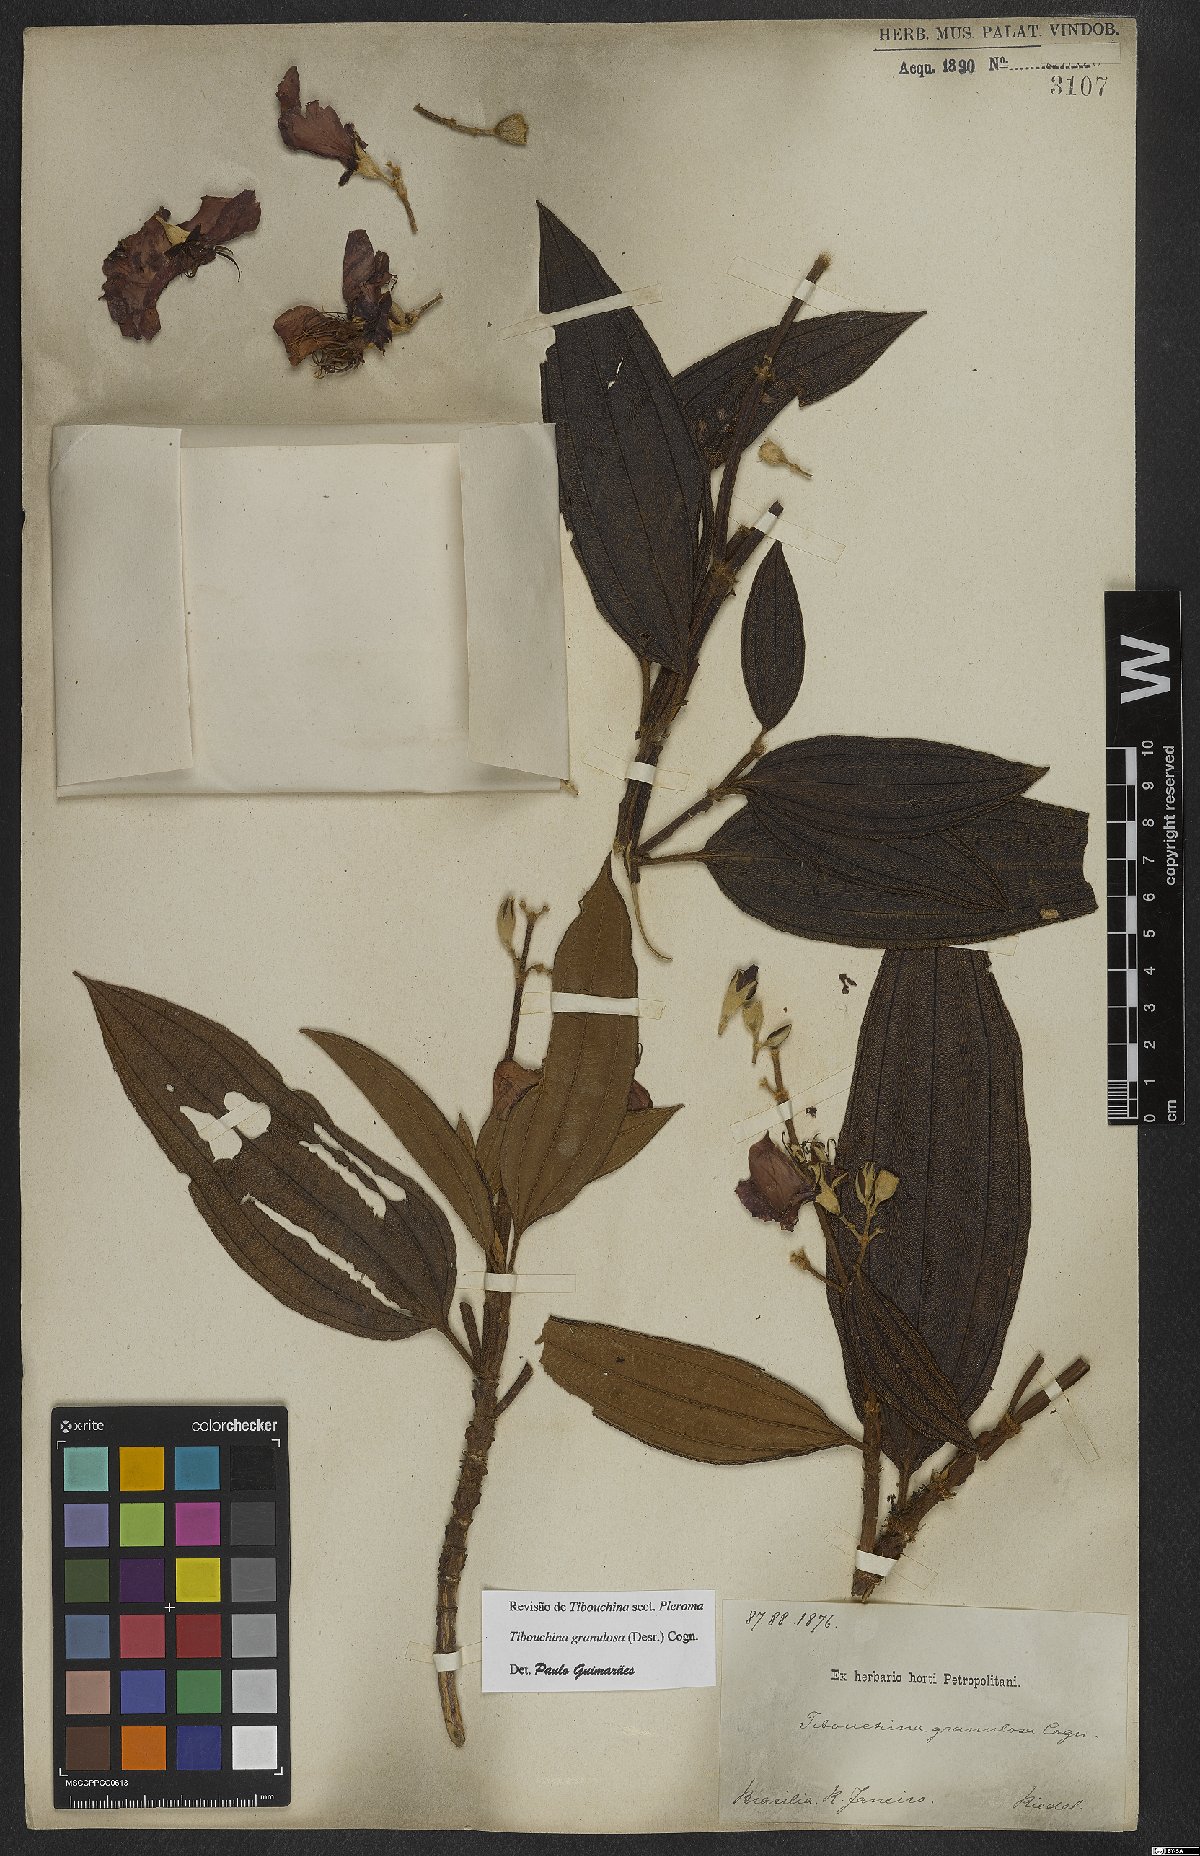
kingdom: Plantae
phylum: Tracheophyta
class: Magnoliopsida
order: Myrtales
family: Melastomataceae
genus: Pleroma
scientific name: Pleroma granulosum
